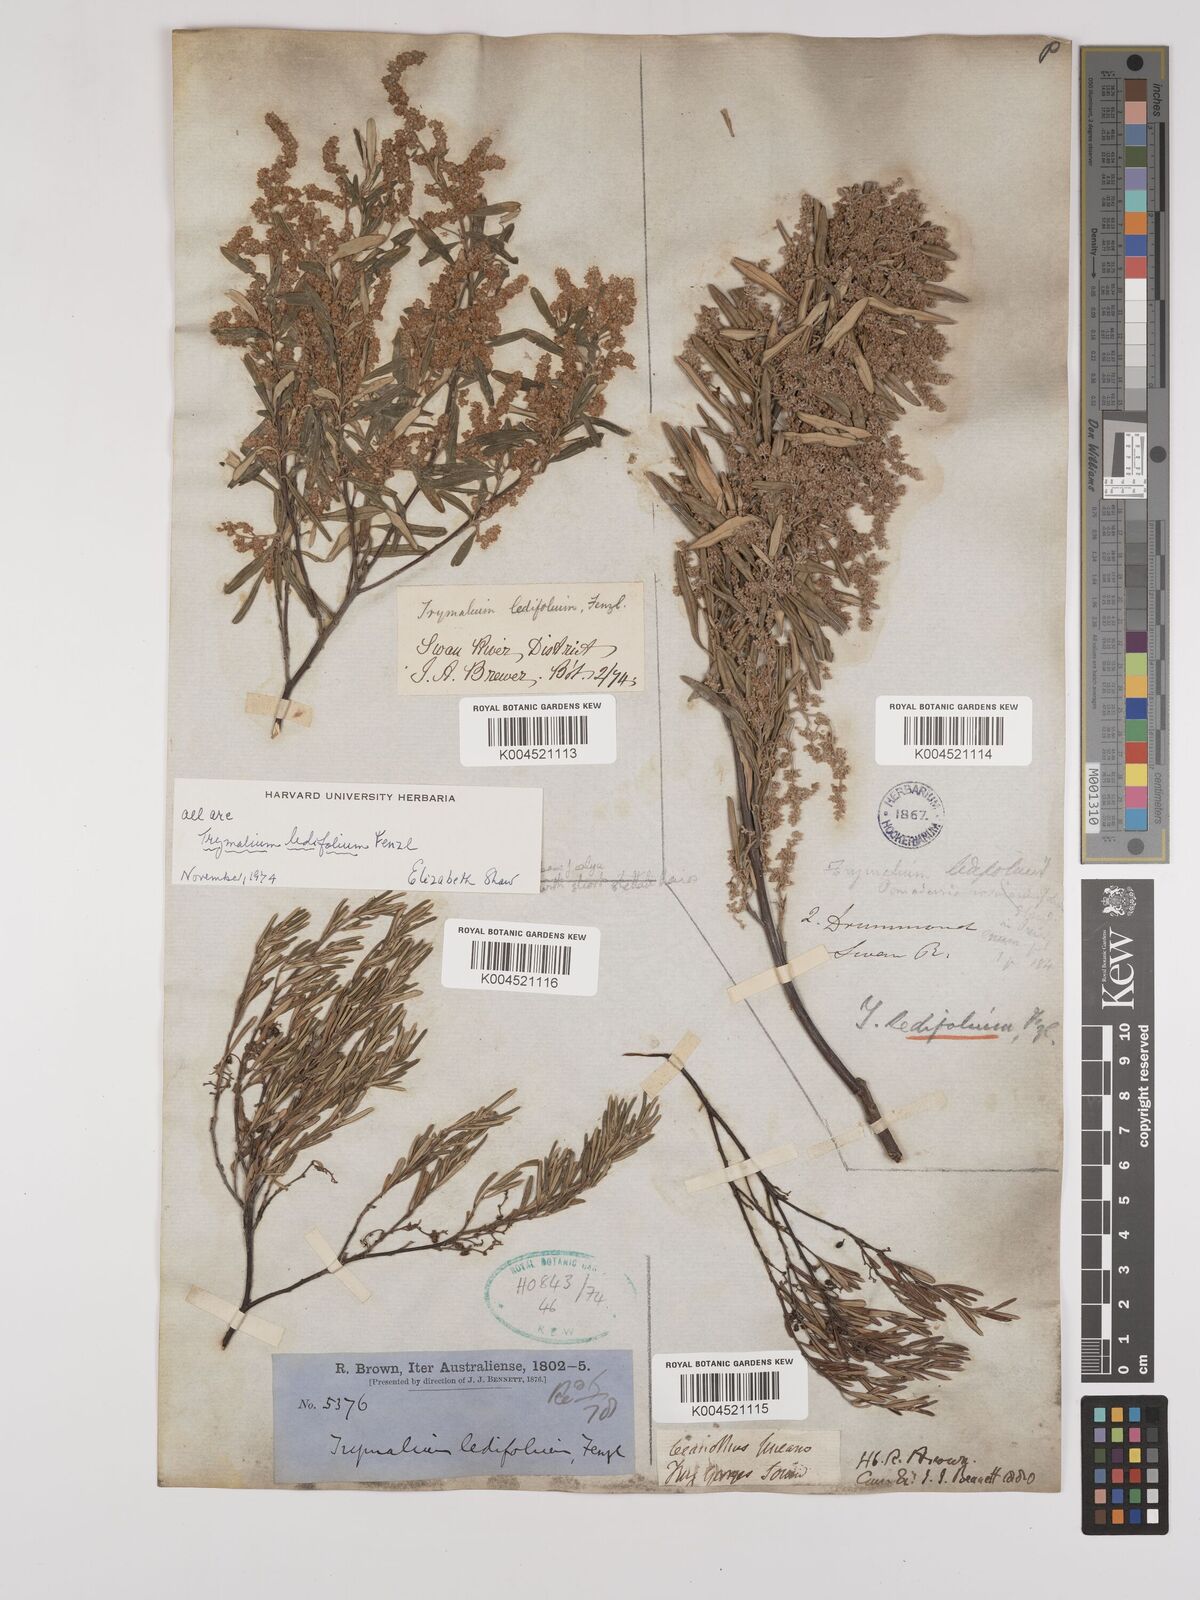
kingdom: Plantae
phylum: Tracheophyta
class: Magnoliopsida
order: Rosales
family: Rhamnaceae
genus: Trymalium
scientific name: Trymalium ledifolium
